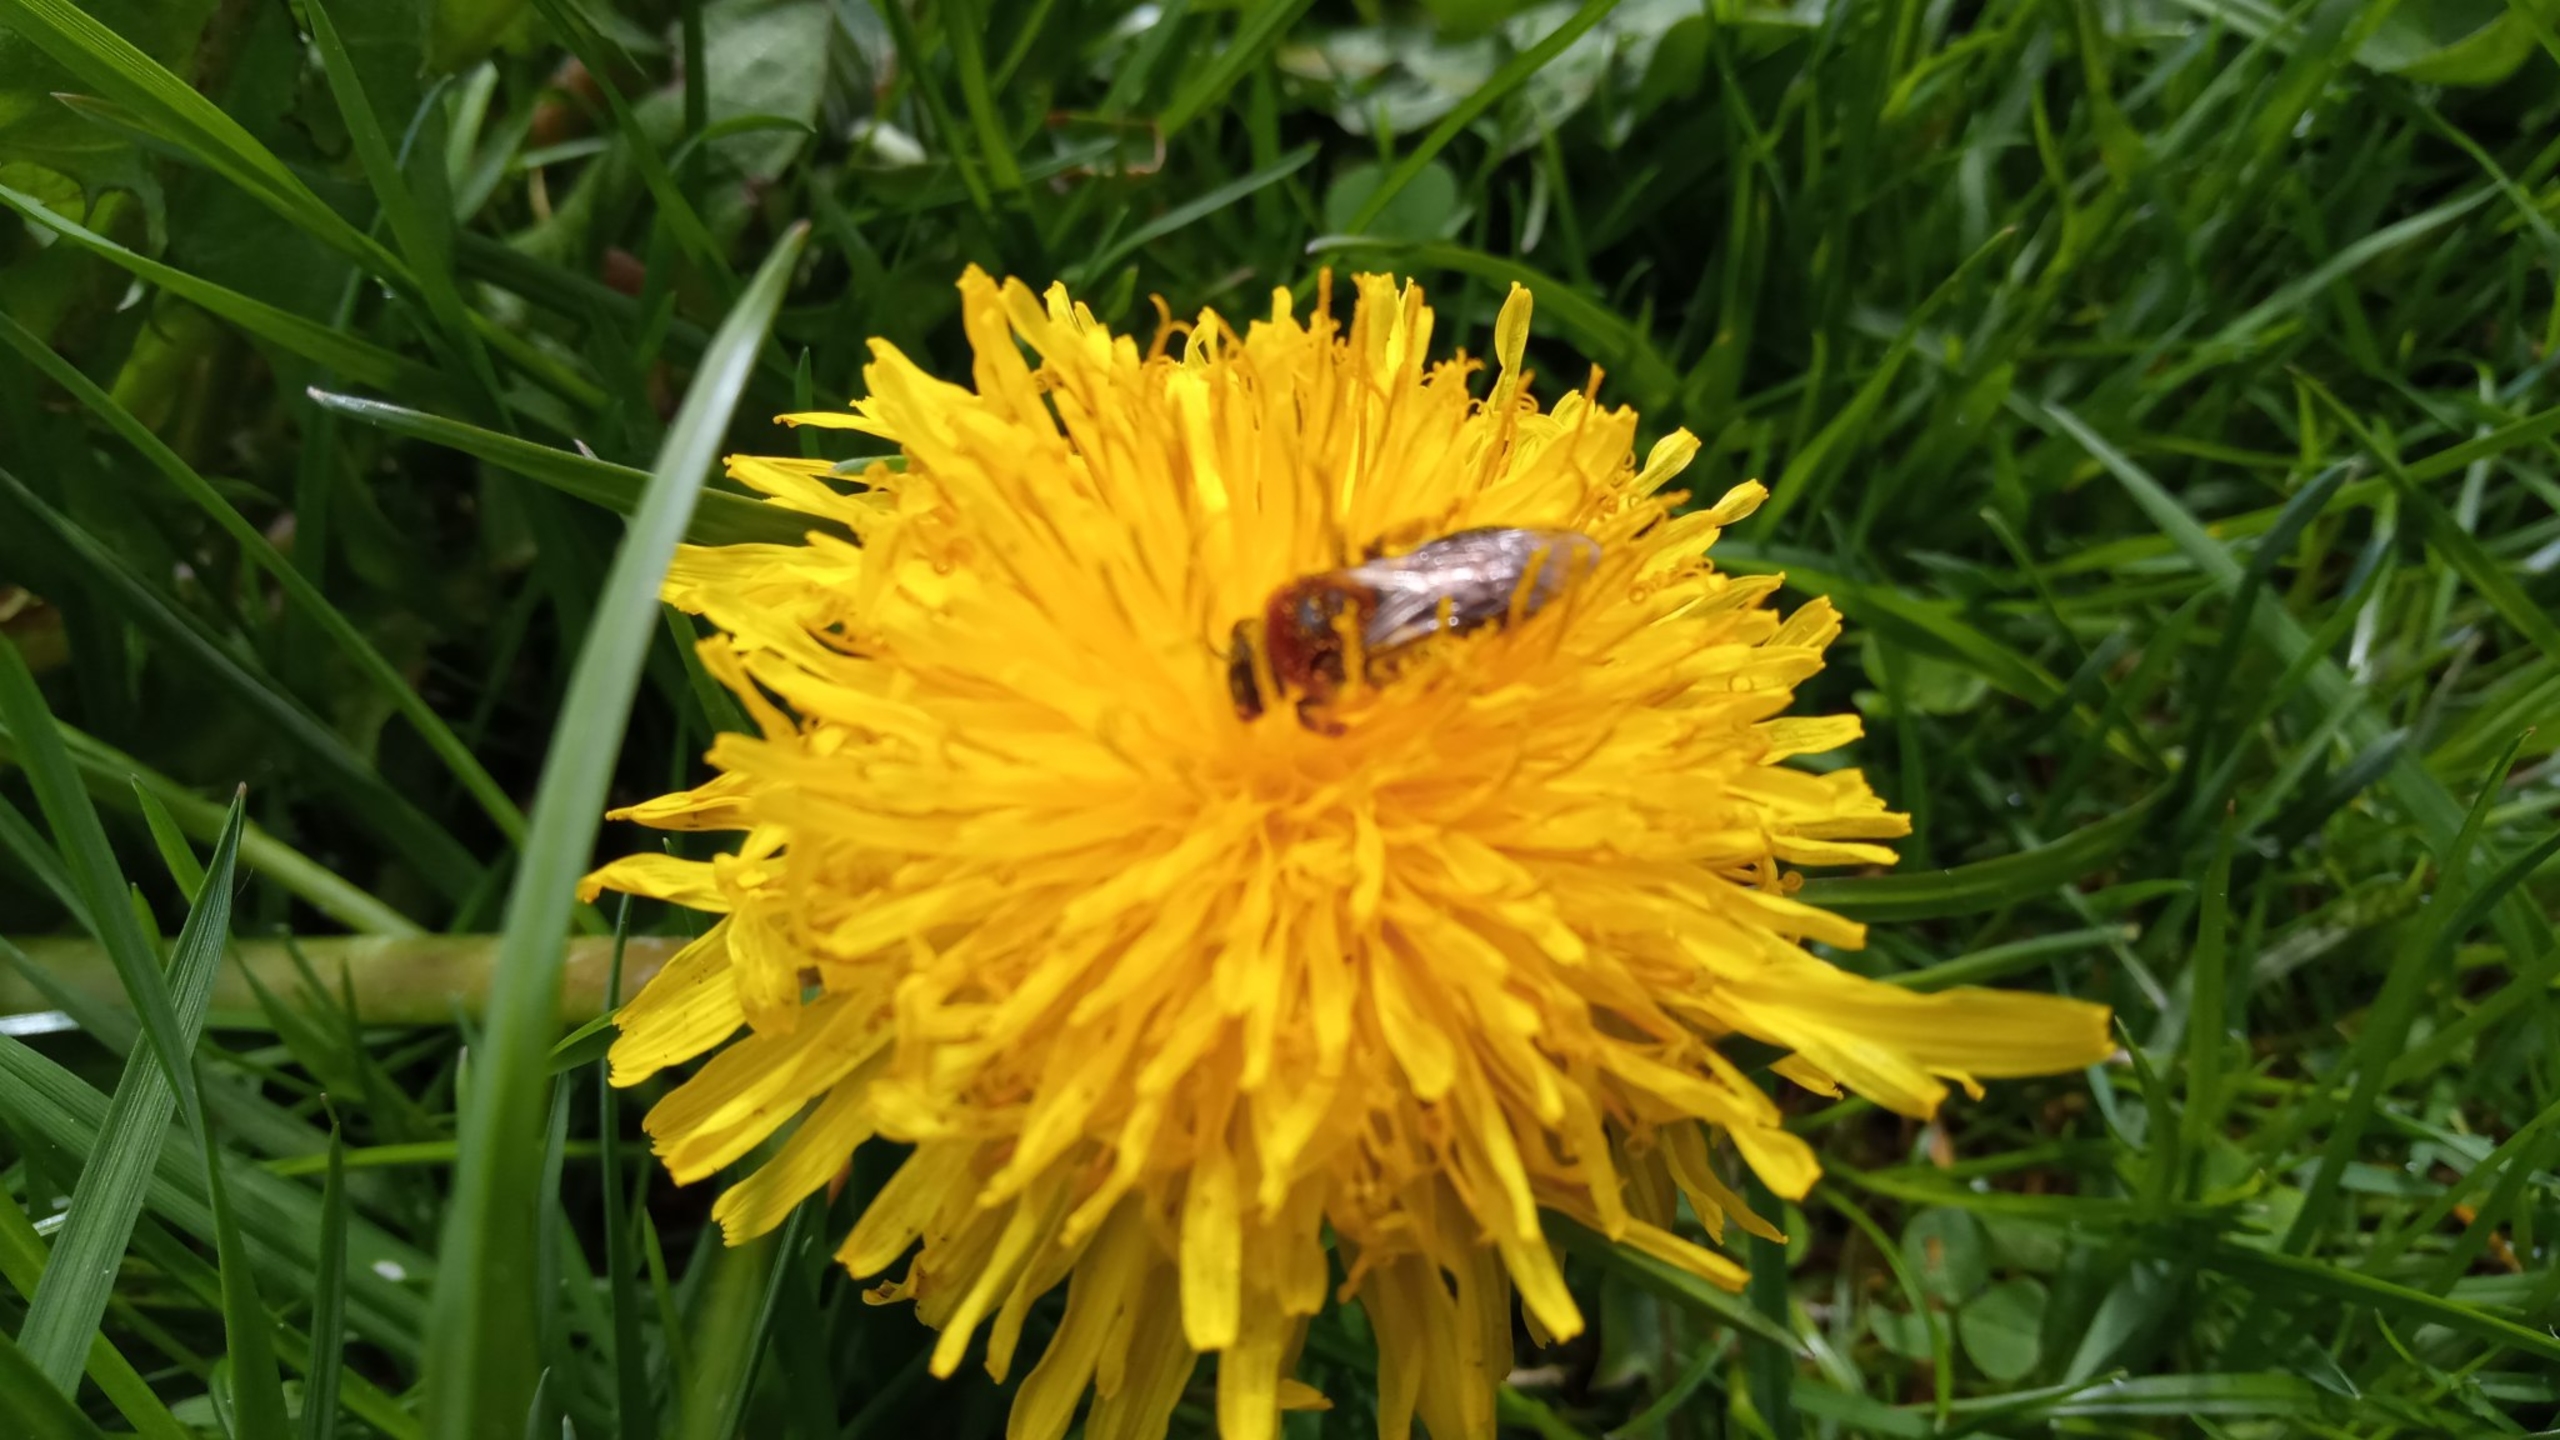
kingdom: Animalia
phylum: Arthropoda
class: Insecta
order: Hymenoptera
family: Andrenidae
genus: Andrena
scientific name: Andrena haemorrhoa
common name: Havejordbi
